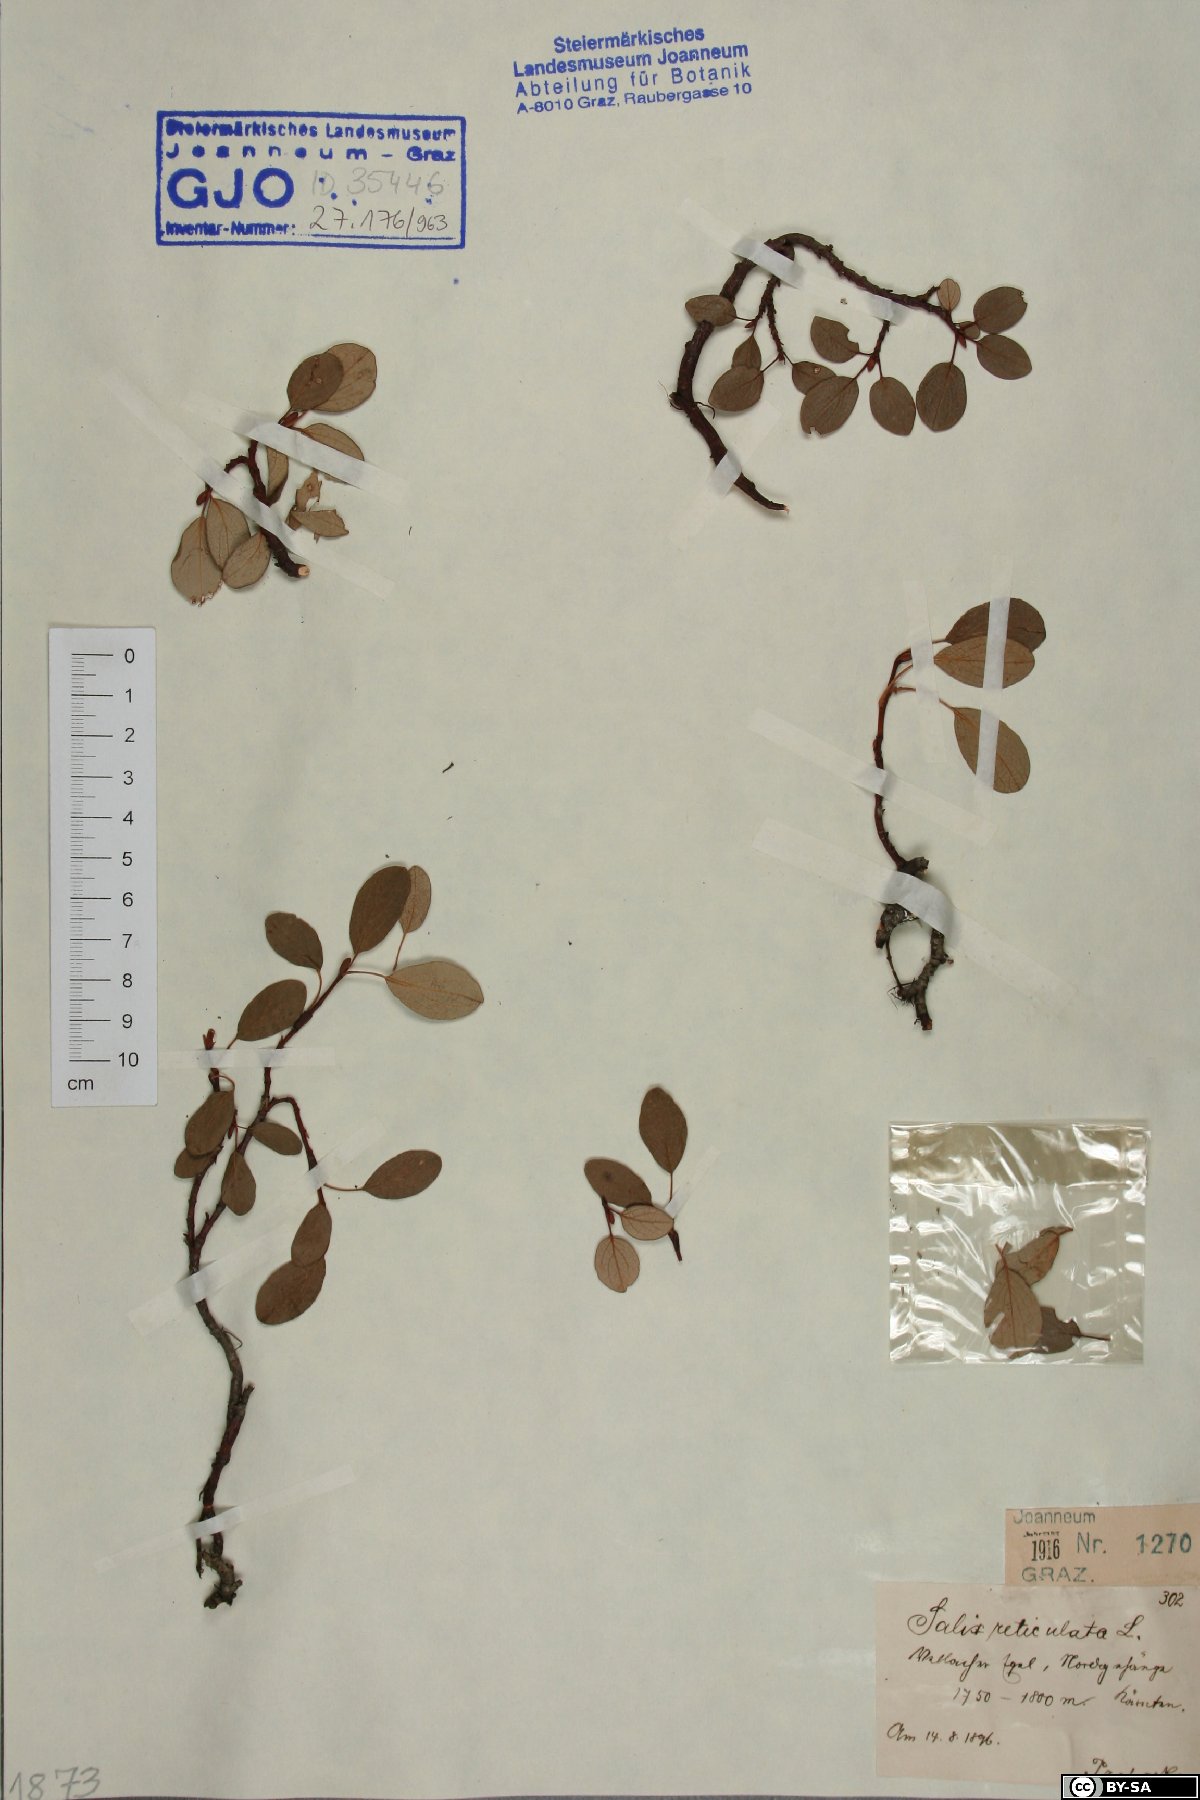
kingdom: Plantae
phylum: Tracheophyta
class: Magnoliopsida
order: Malpighiales
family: Salicaceae
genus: Salix
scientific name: Salix reticulata
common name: Net-leaved willow
